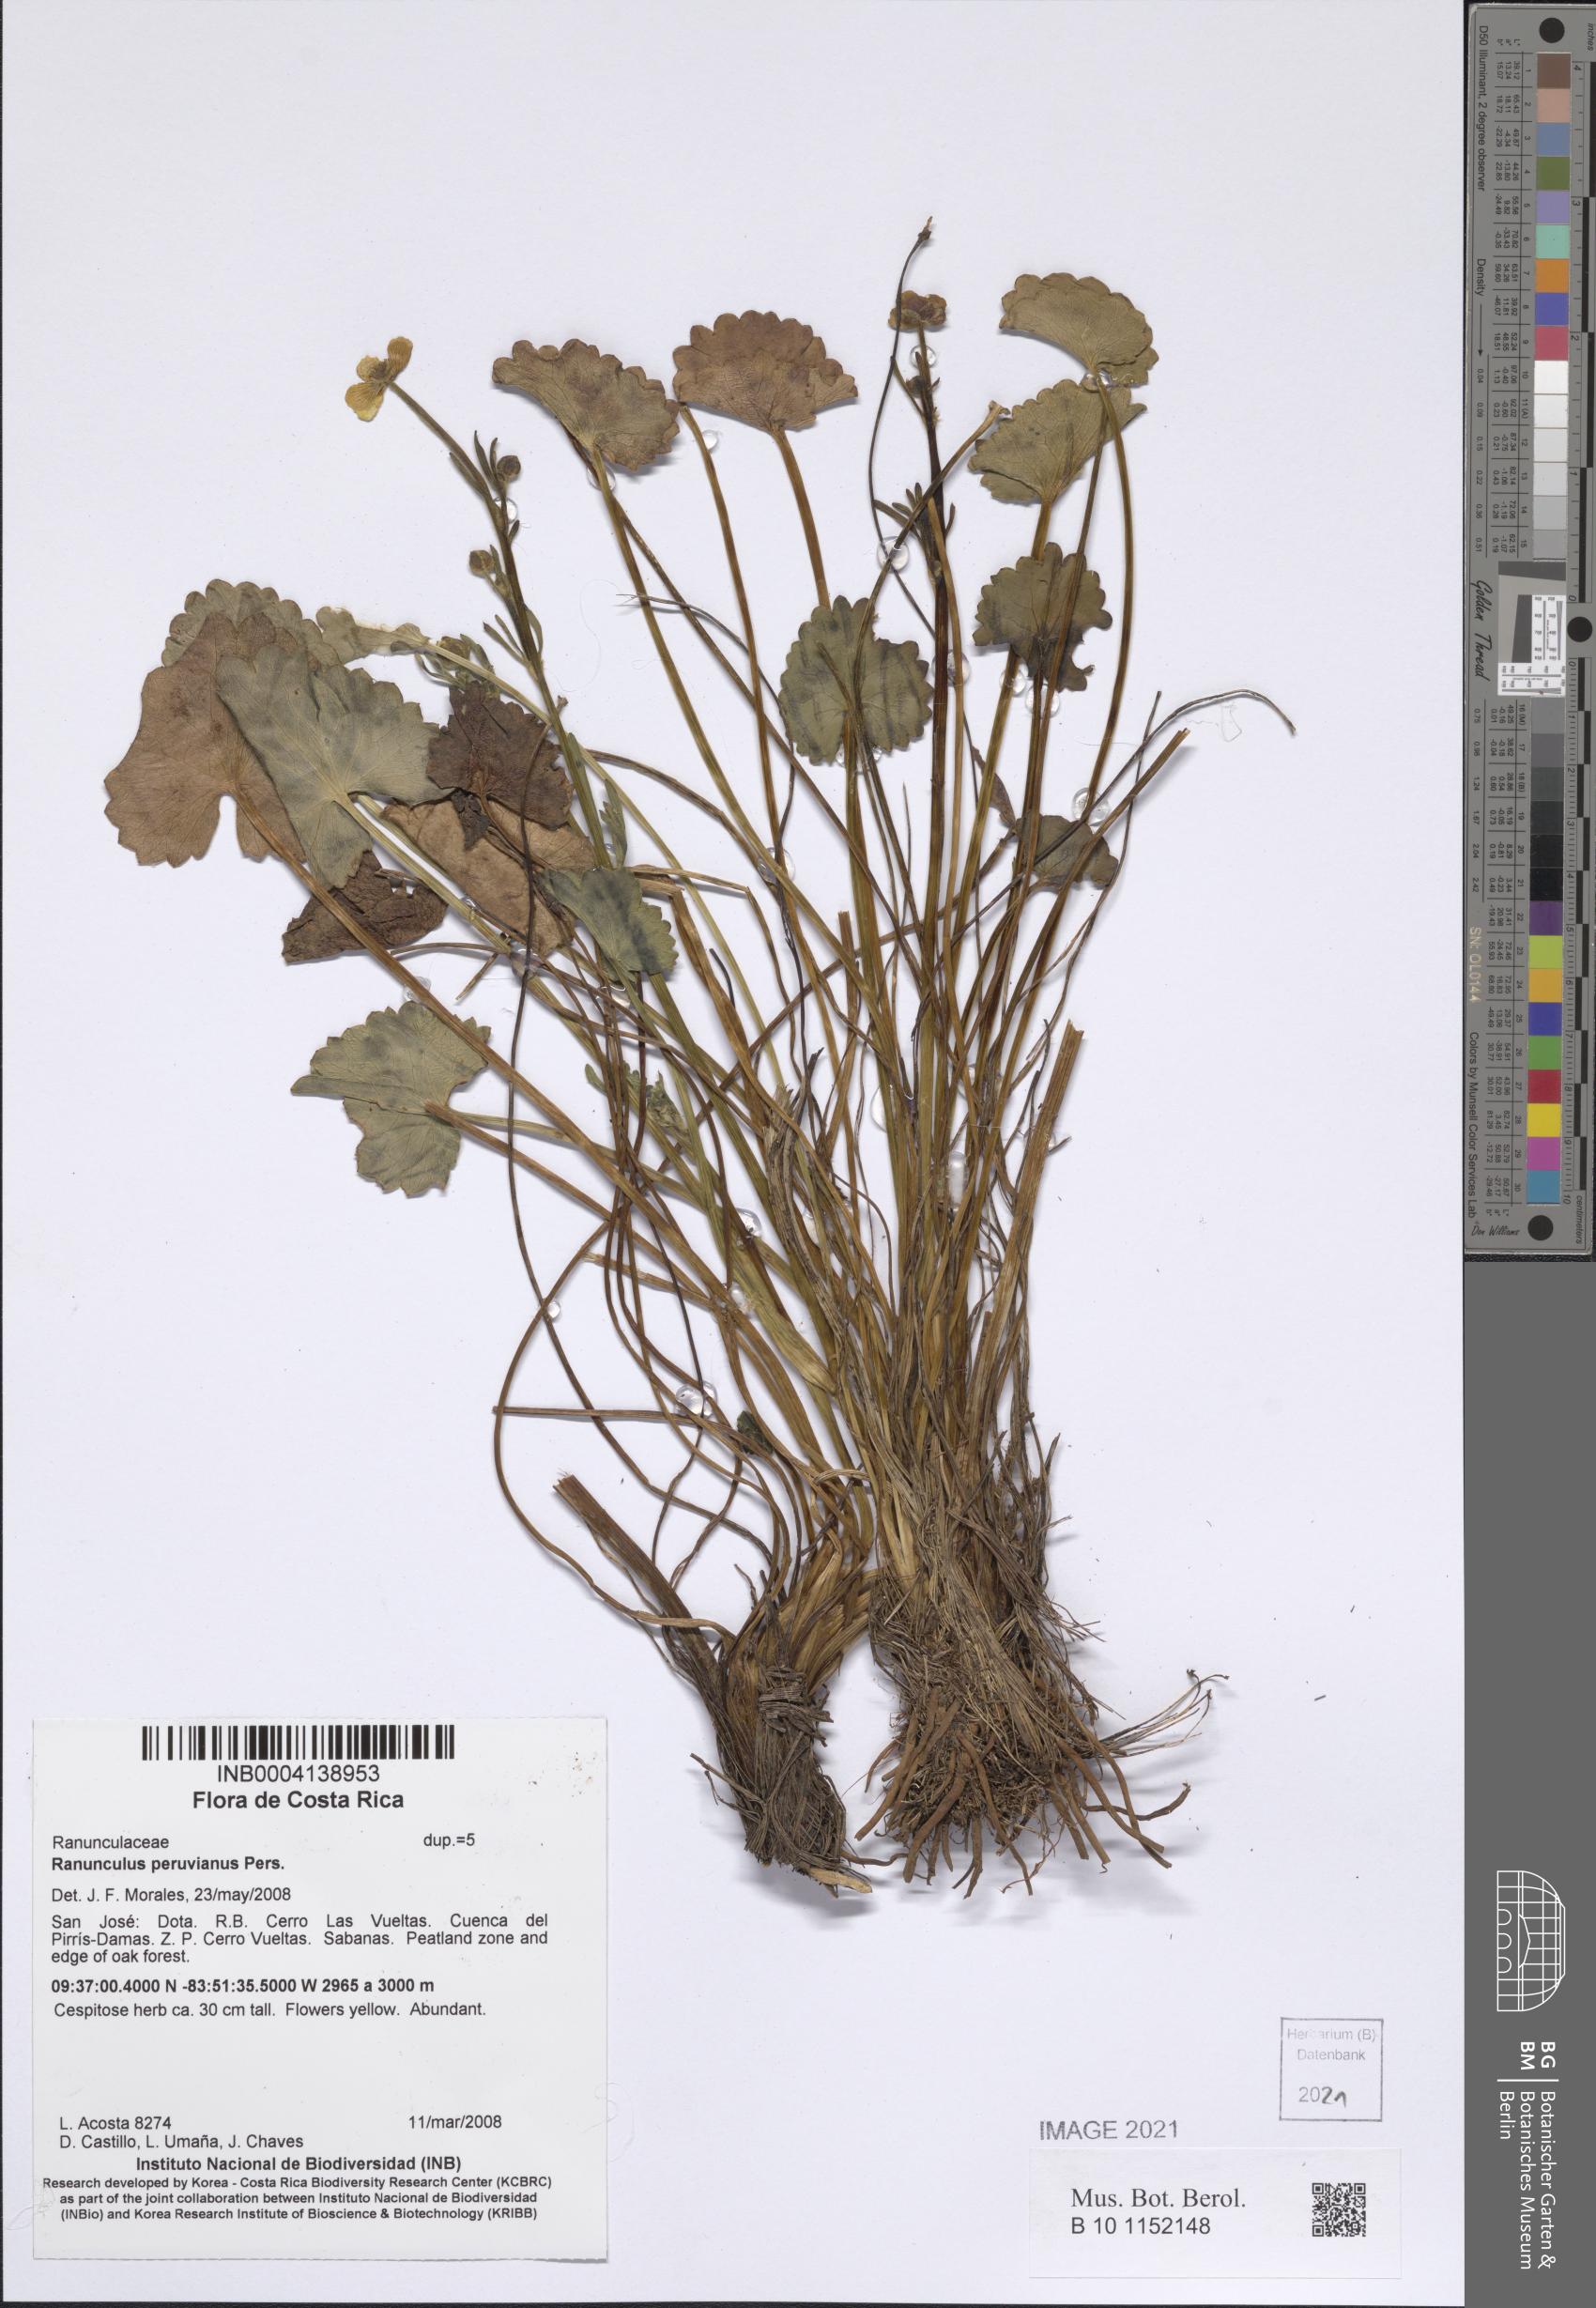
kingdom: Plantae
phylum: Tracheophyta
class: Magnoliopsida
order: Ranunculales
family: Ranunculaceae
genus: Ranunculus
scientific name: Ranunculus peruvianus
